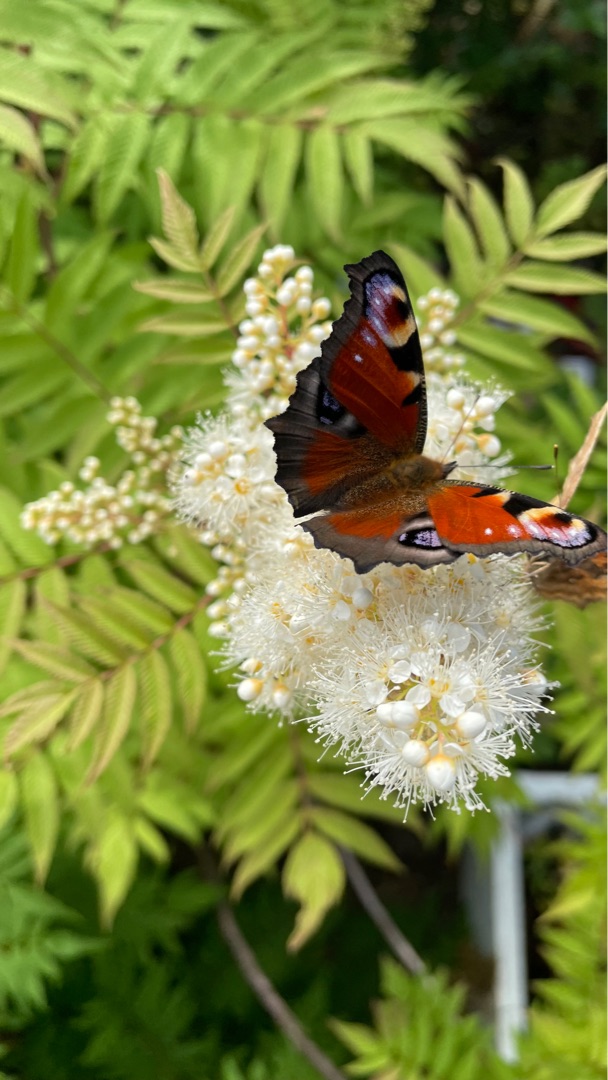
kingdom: Animalia
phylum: Arthropoda
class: Insecta
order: Lepidoptera
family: Nymphalidae
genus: Aglais
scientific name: Aglais io
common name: Dagpåfugleøje
